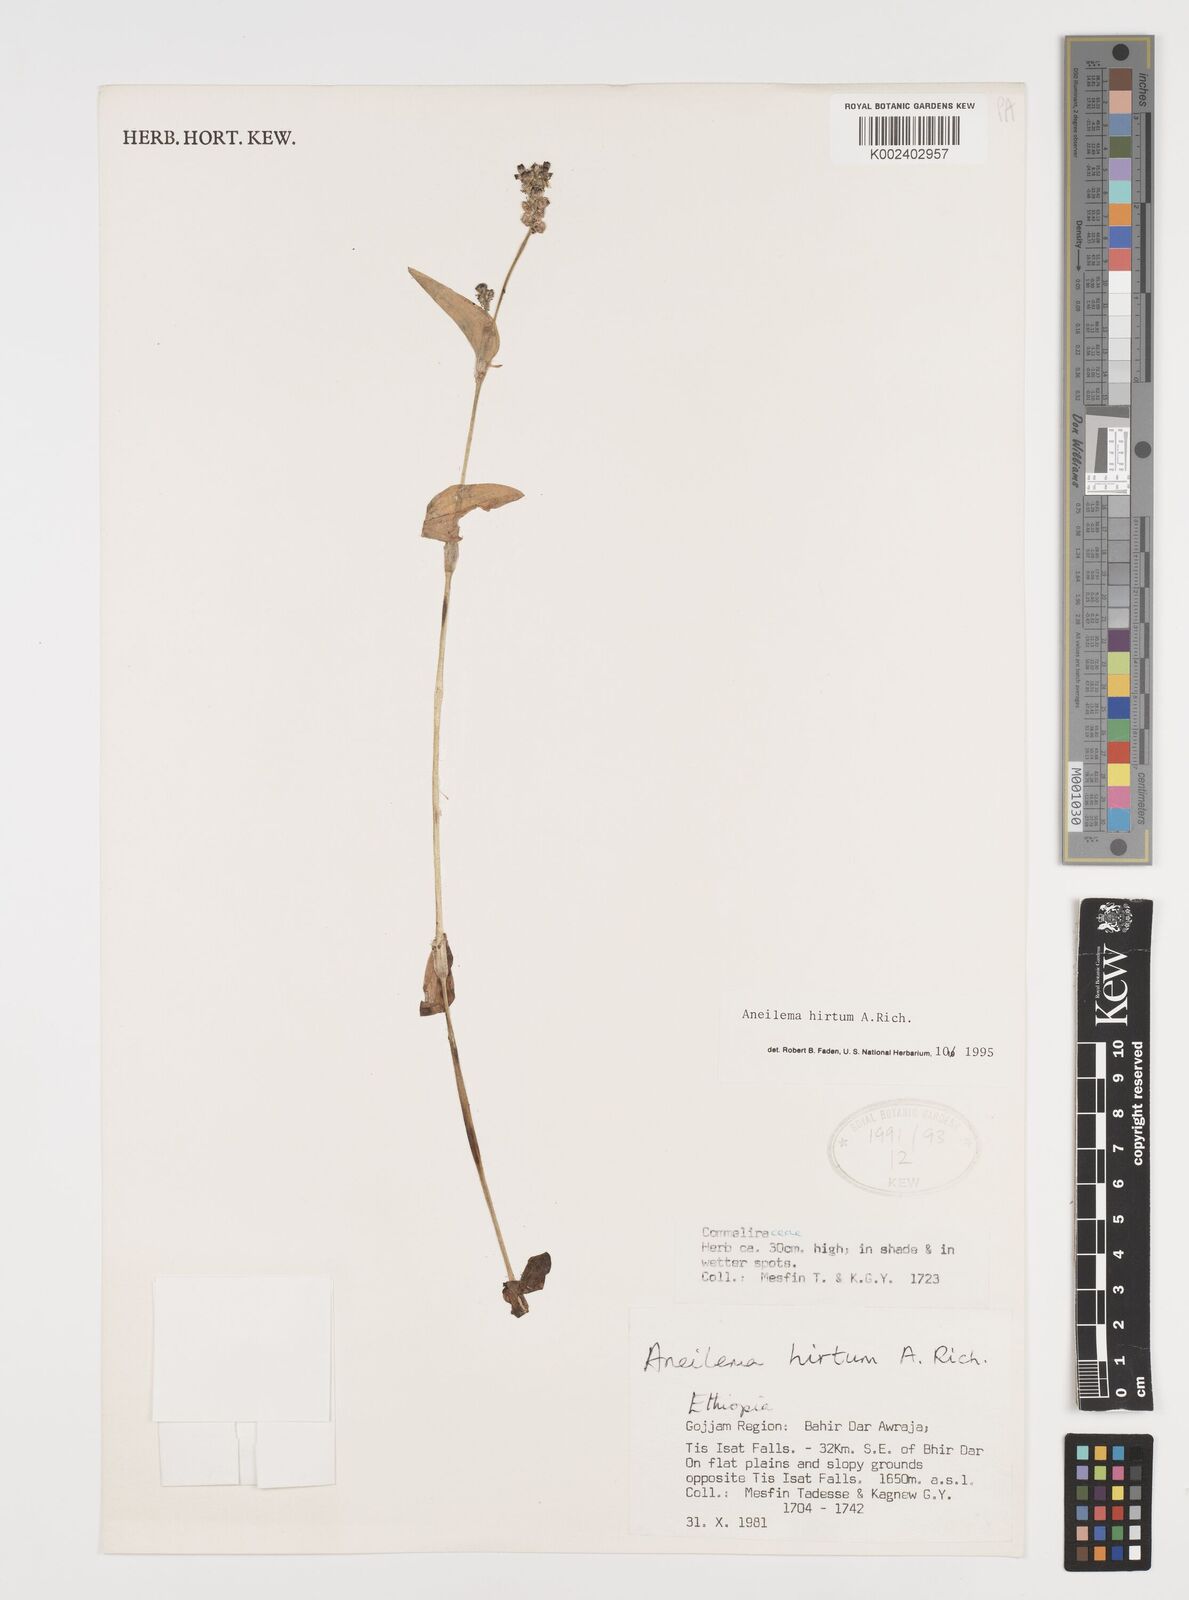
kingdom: Plantae
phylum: Tracheophyta
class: Liliopsida
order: Commelinales
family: Commelinaceae
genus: Aneilema
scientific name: Aneilema hirtum
